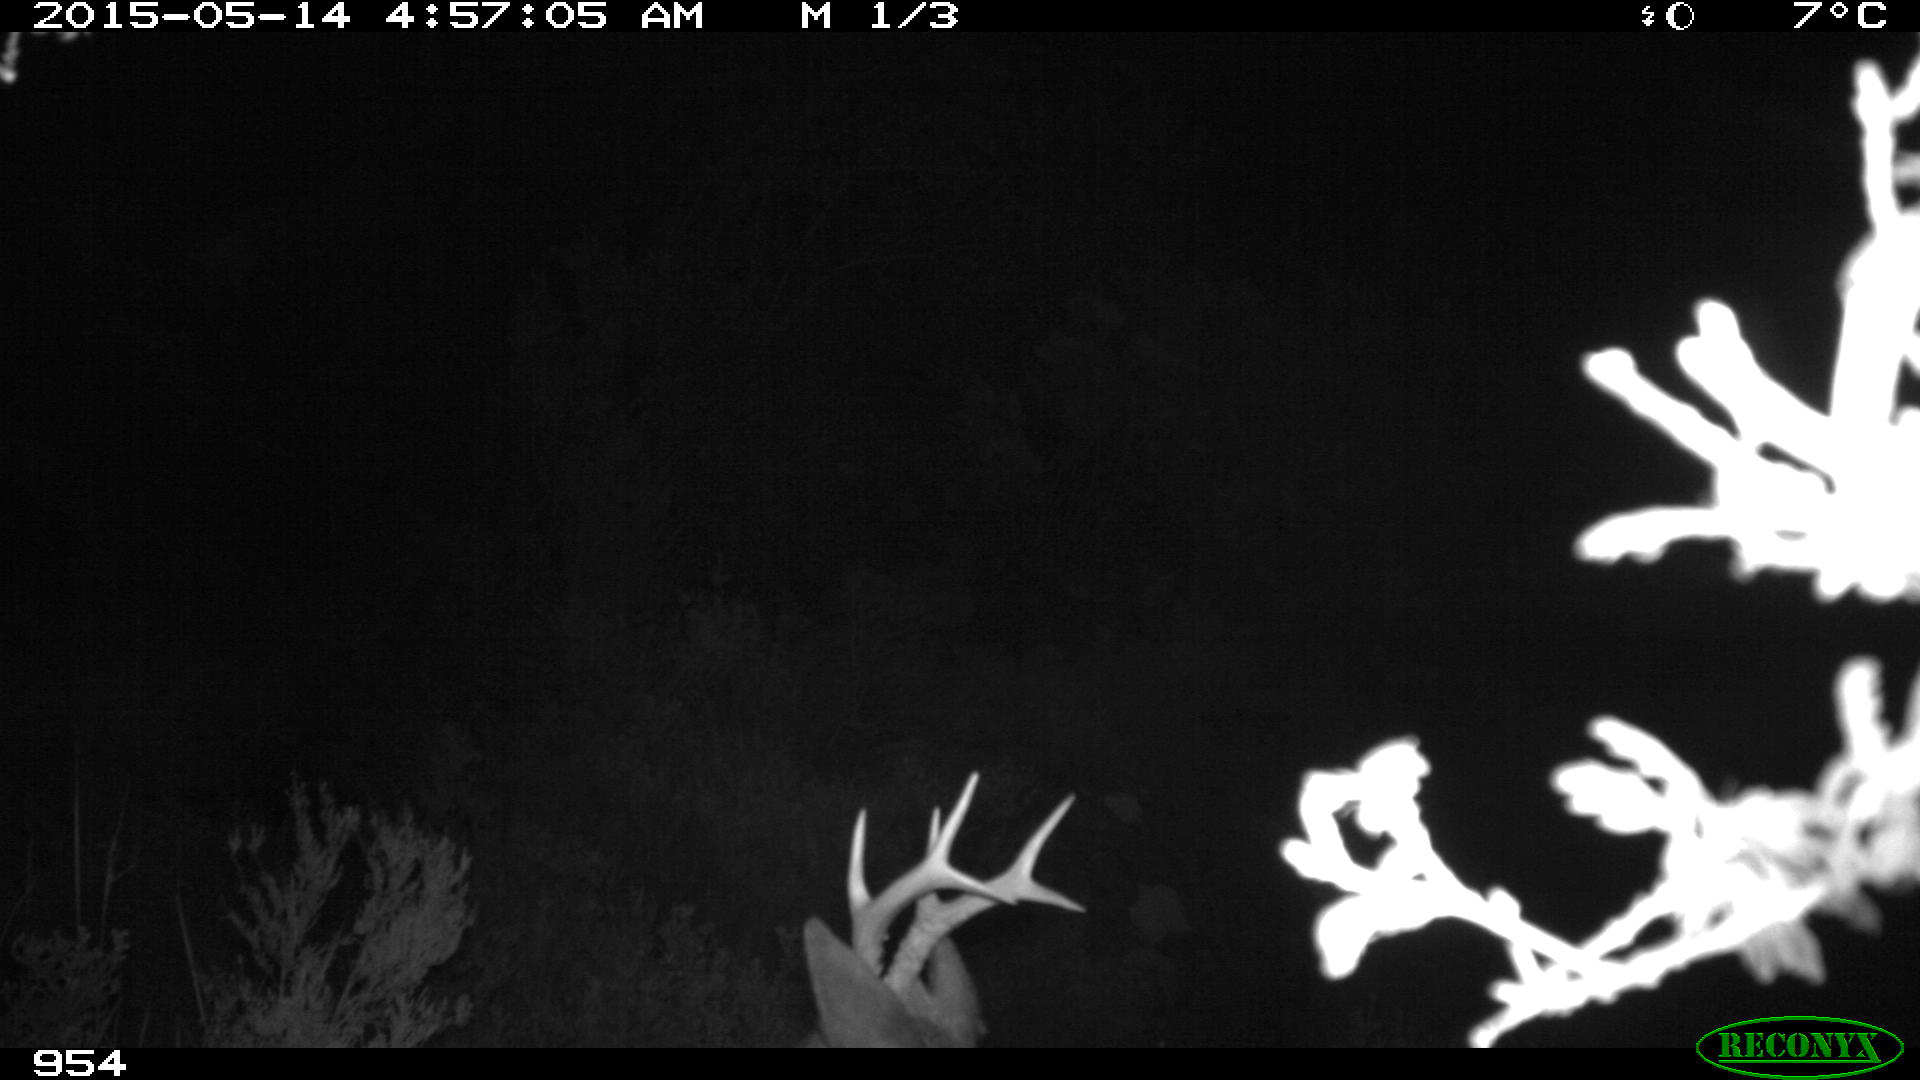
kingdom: Animalia
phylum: Chordata
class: Mammalia
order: Artiodactyla
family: Cervidae
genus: Capreolus
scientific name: Capreolus capreolus
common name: Western roe deer
